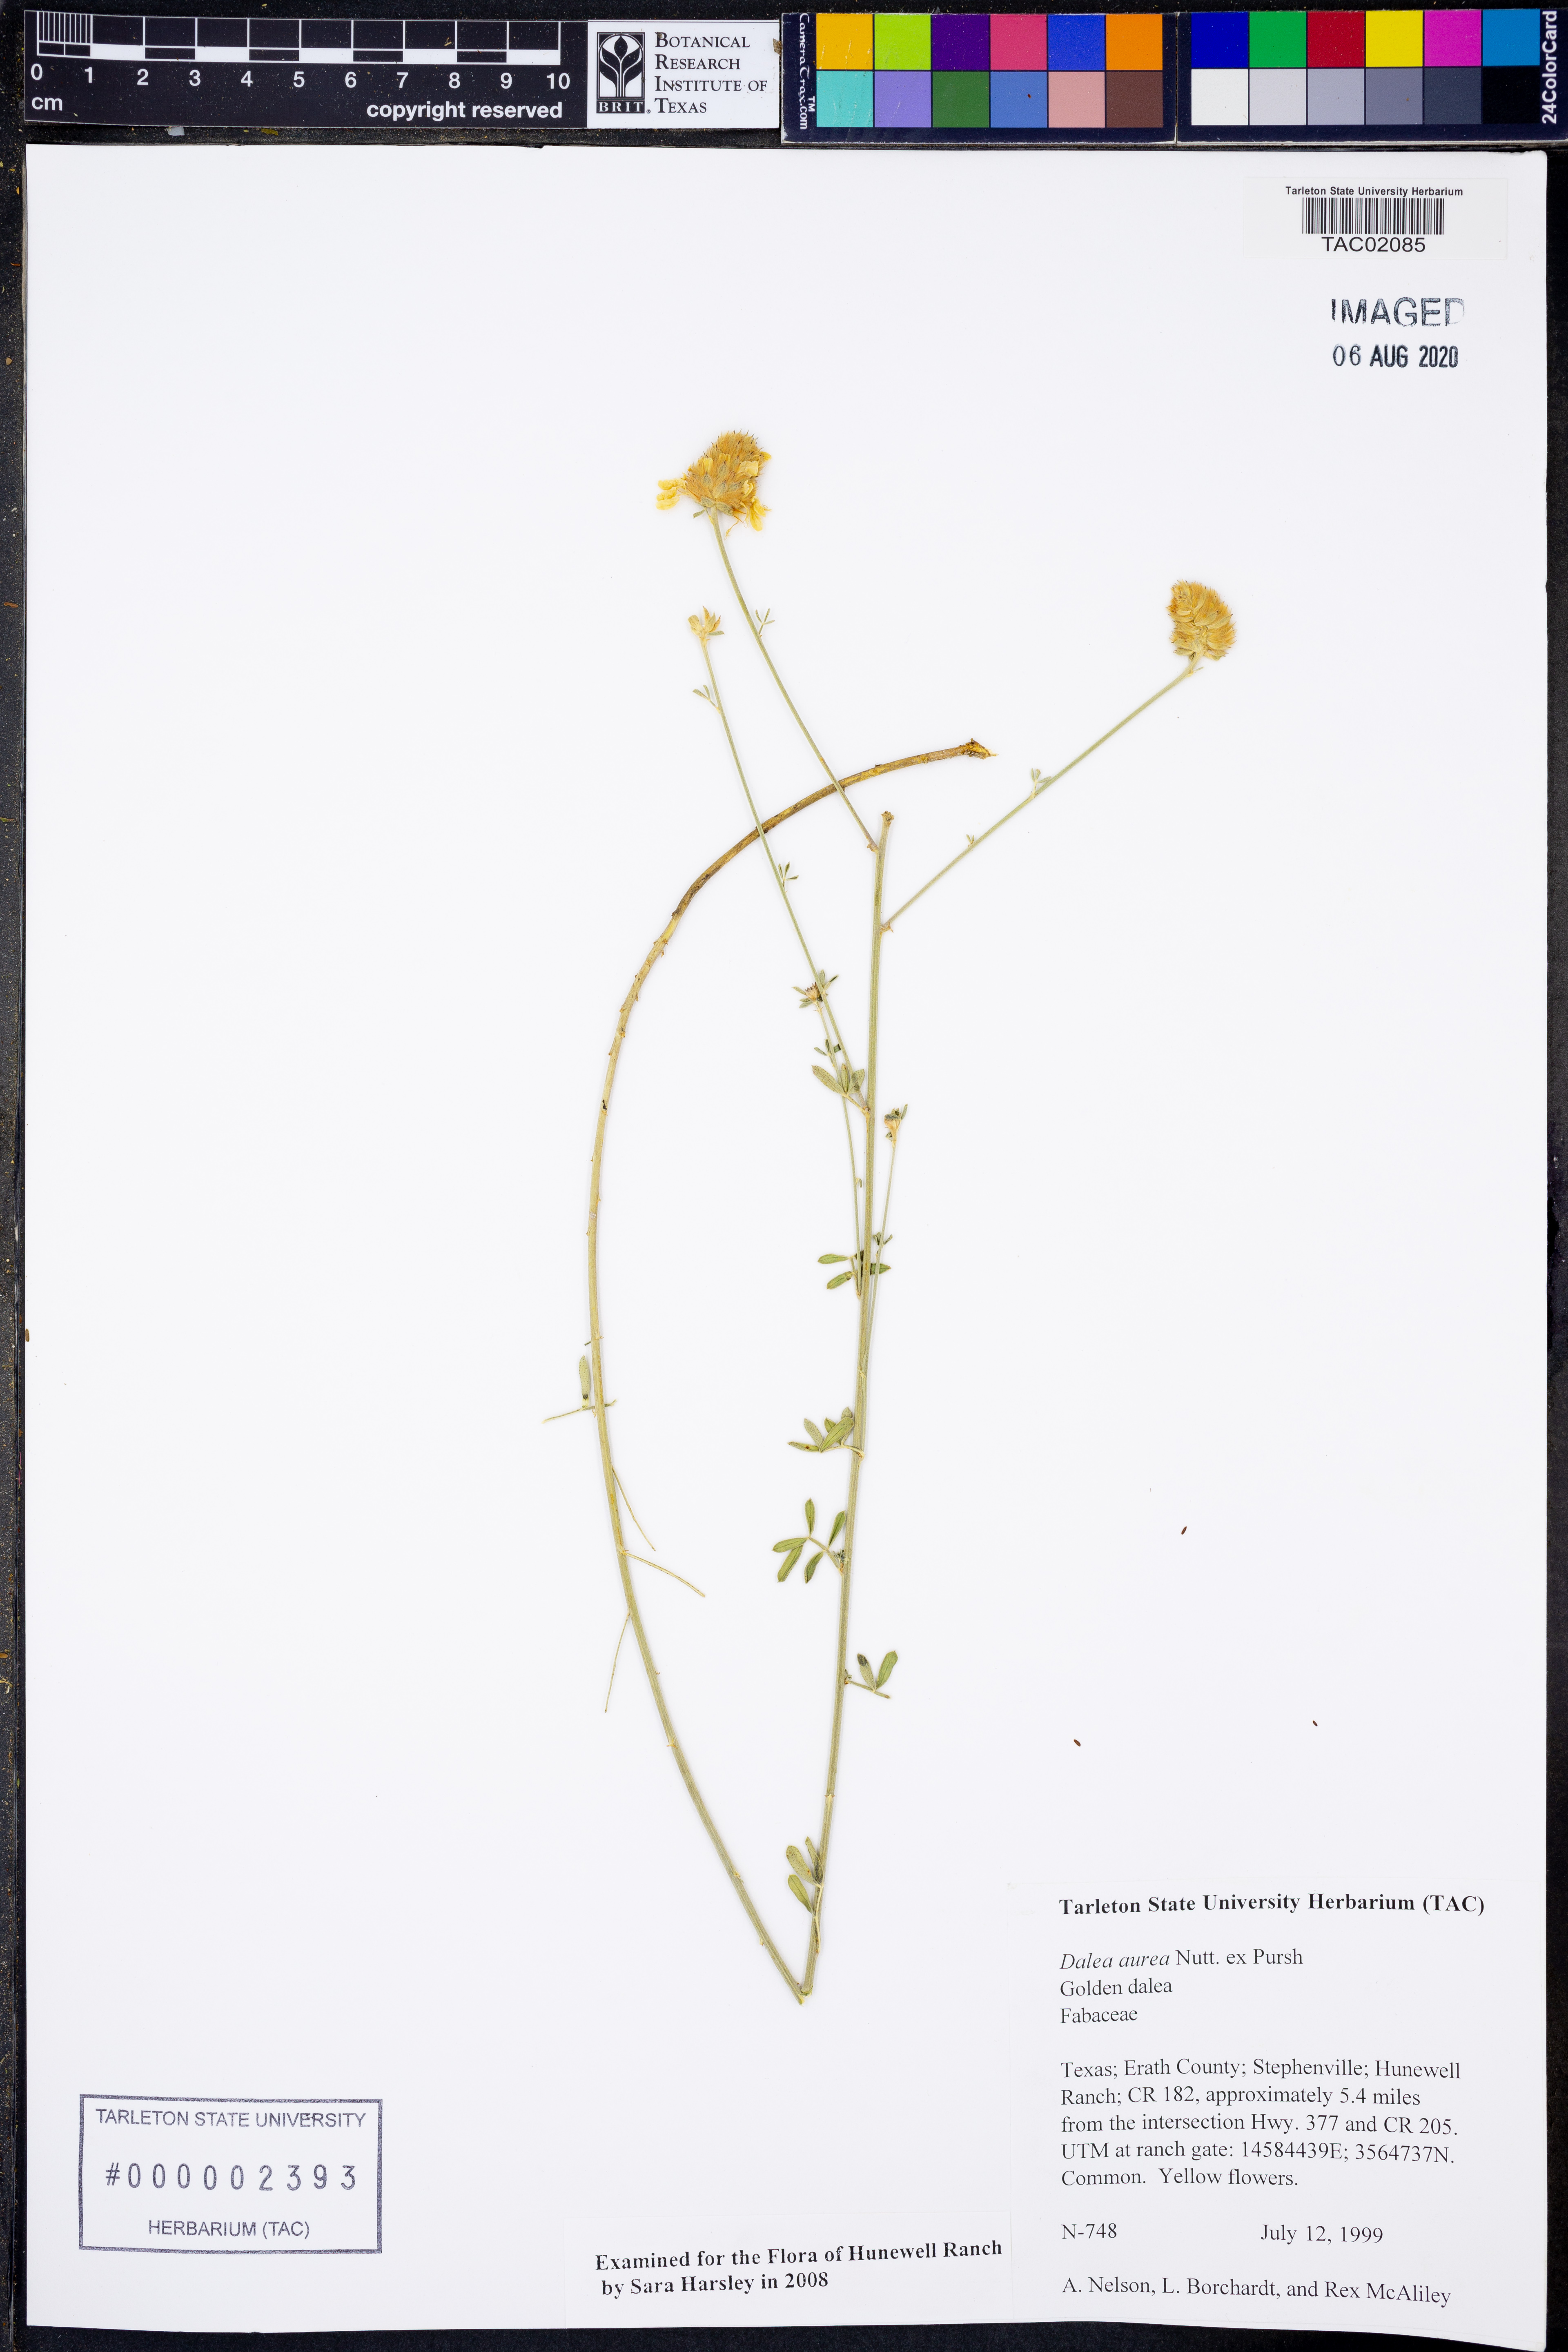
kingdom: Plantae
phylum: Tracheophyta
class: Magnoliopsida
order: Fabales
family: Fabaceae
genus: Dalea
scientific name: Dalea aurea
